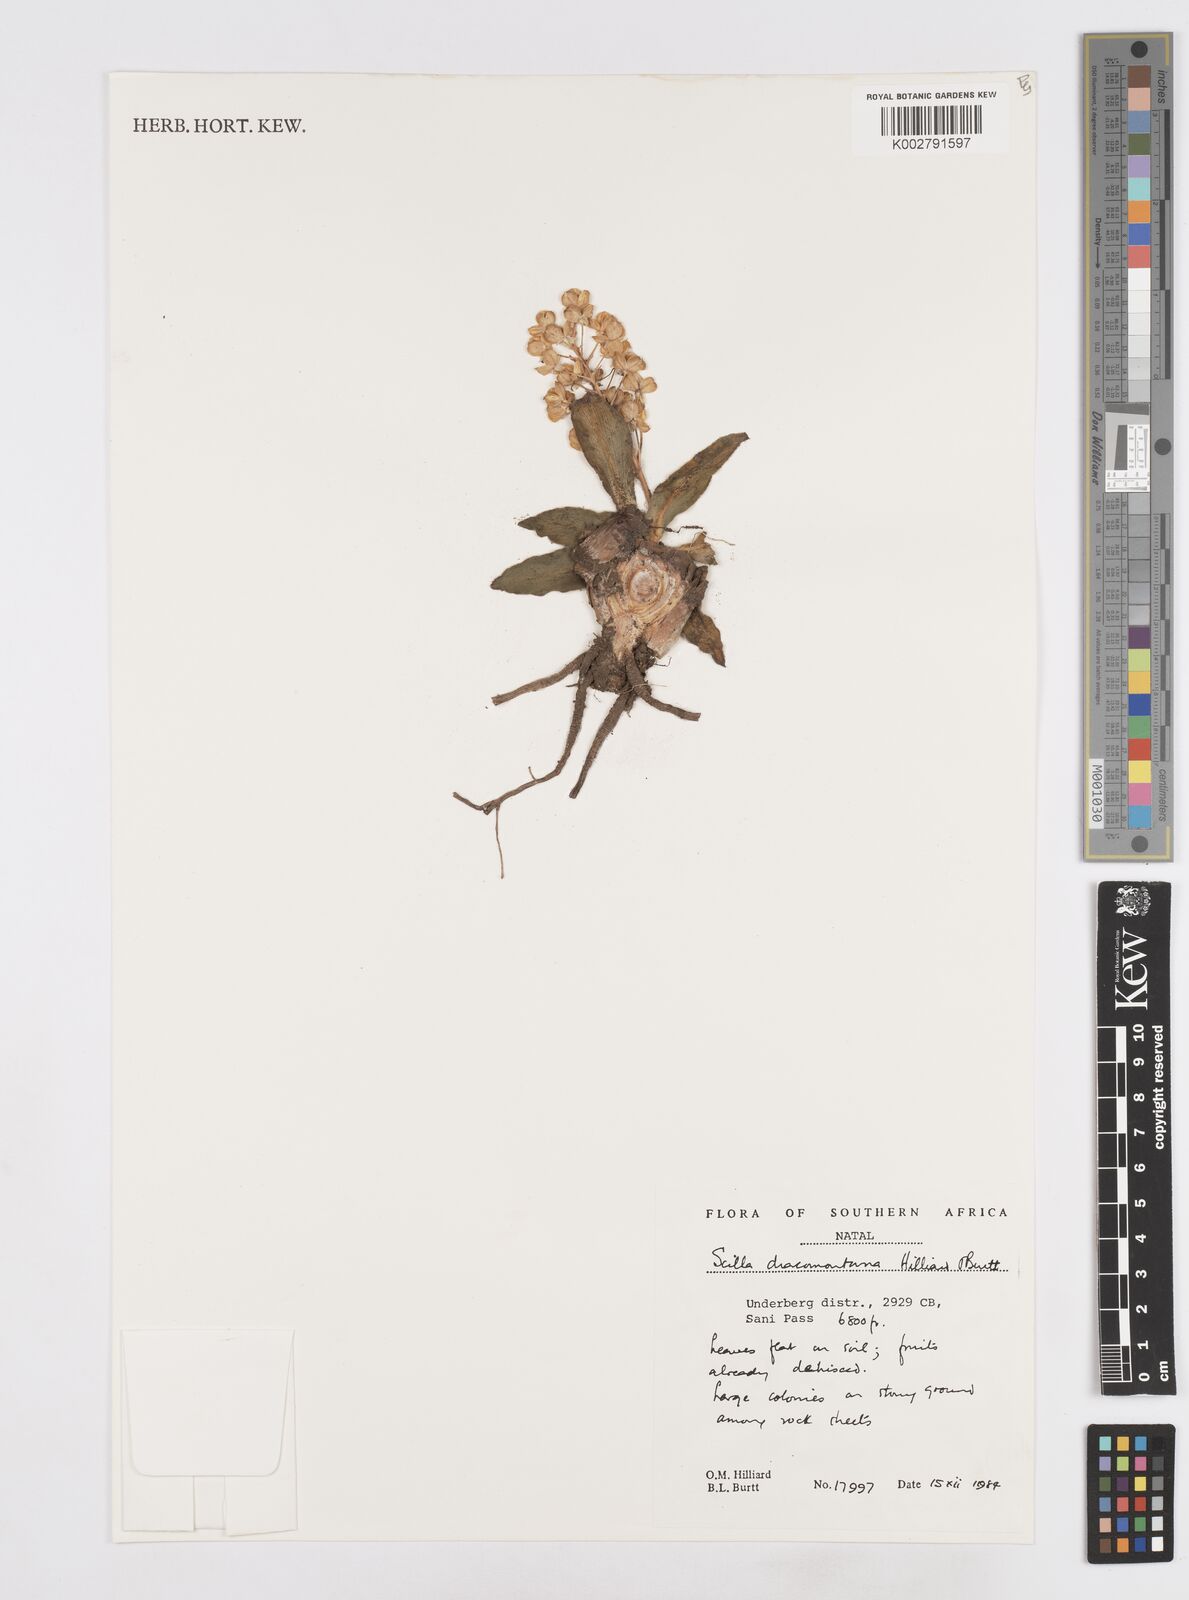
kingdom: Plantae
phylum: Tracheophyta
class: Liliopsida
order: Asparagales
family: Asparagaceae
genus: Merwilla
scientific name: Merwilla dracomontana
